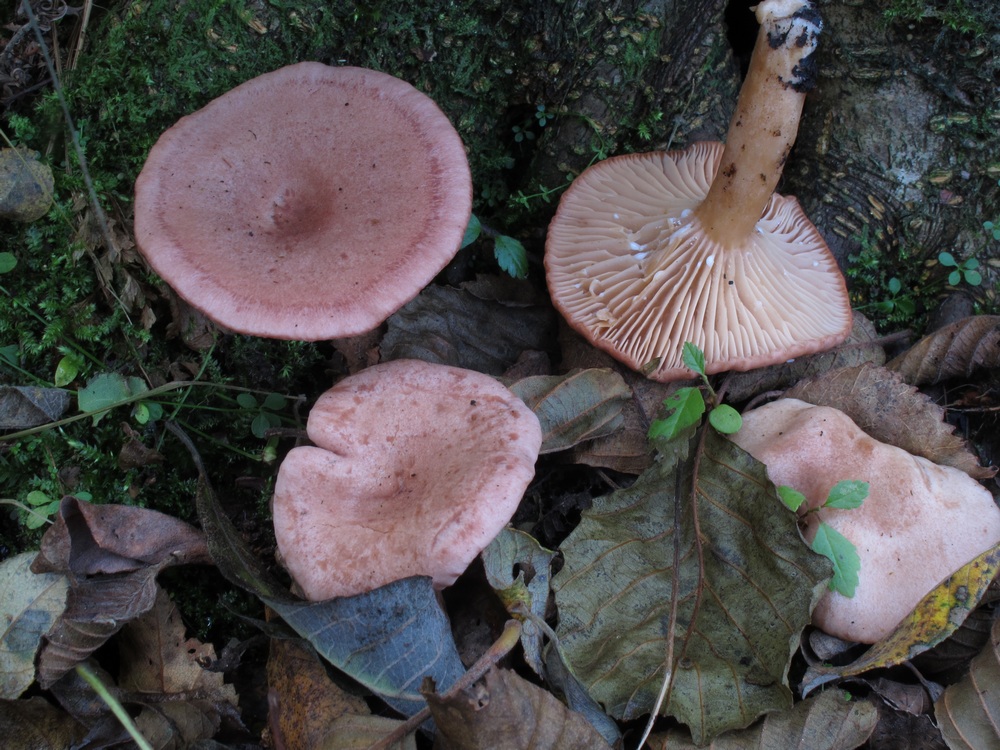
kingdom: Fungi
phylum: Basidiomycota
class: Agaricomycetes
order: Russulales
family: Russulaceae
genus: Lactarius
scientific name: Lactarius lilacinus
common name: lilla mælkehat
